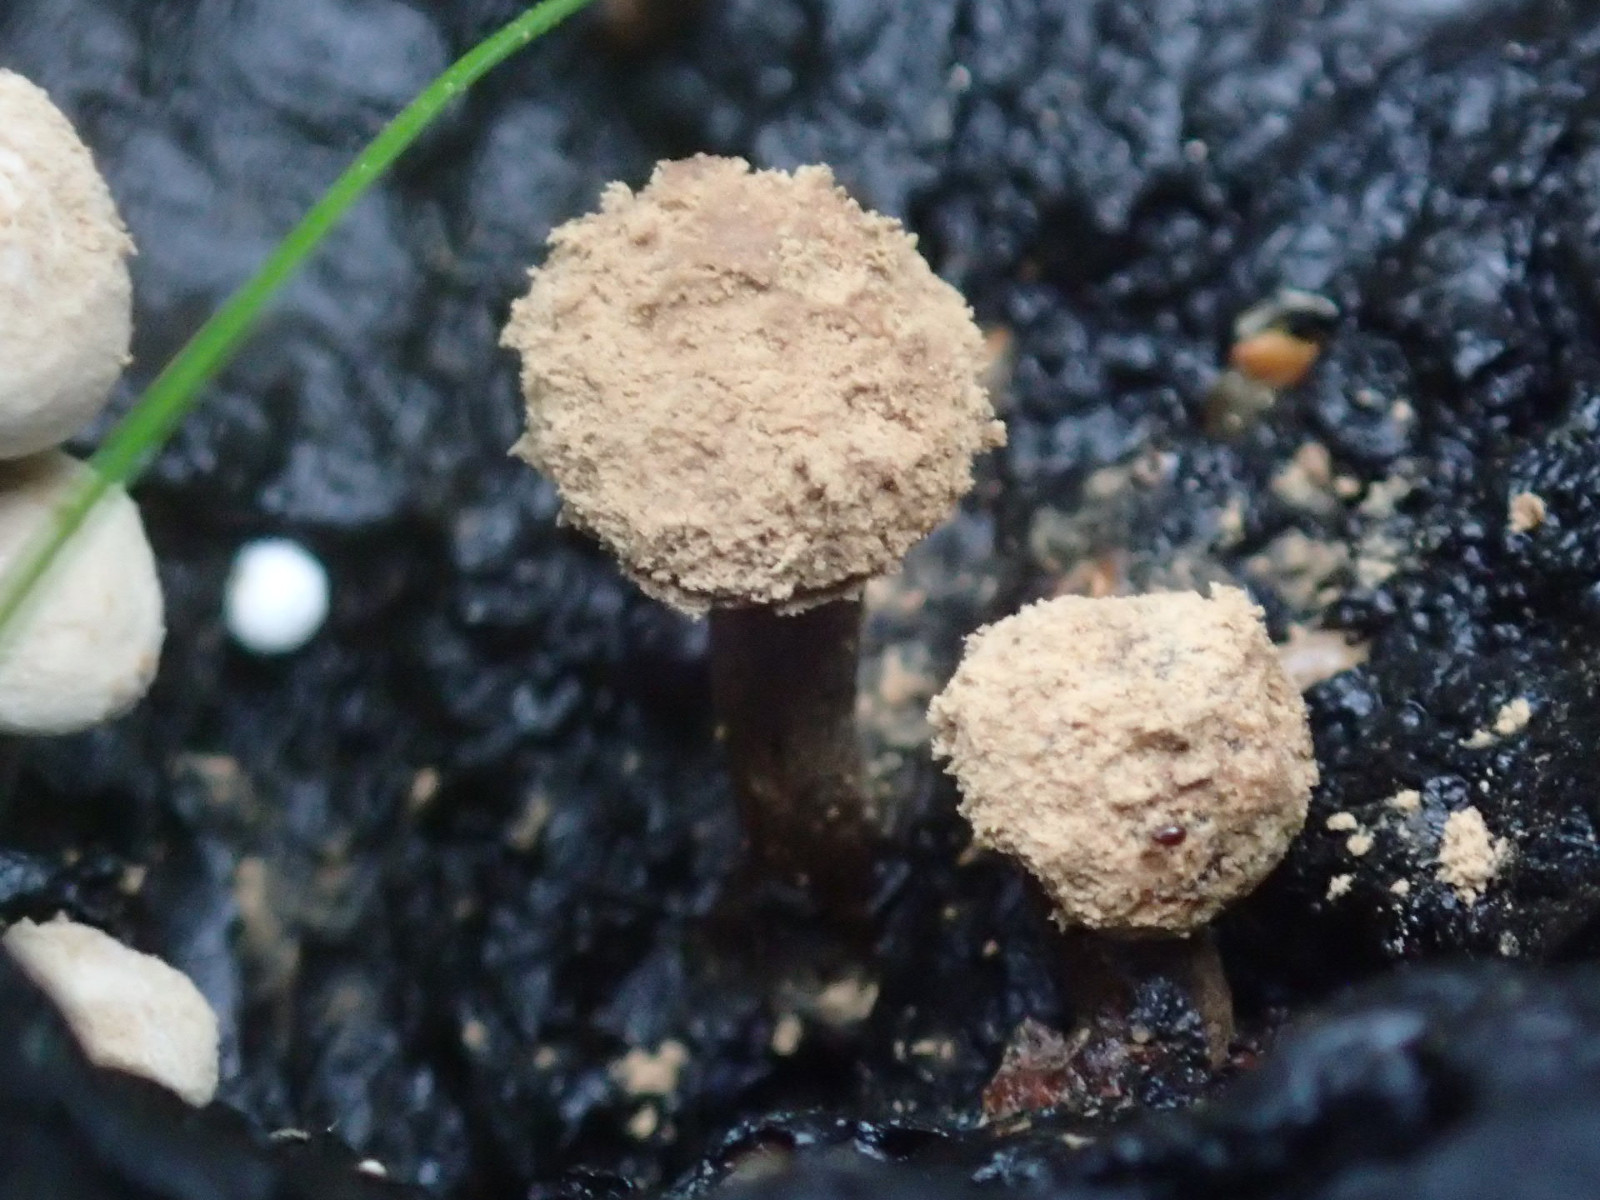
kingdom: Fungi
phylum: Basidiomycota
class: Agaricomycetes
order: Agaricales
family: Lyophyllaceae
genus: Asterophora
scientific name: Asterophora lycoperdoides
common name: brunpudret snyltehat
